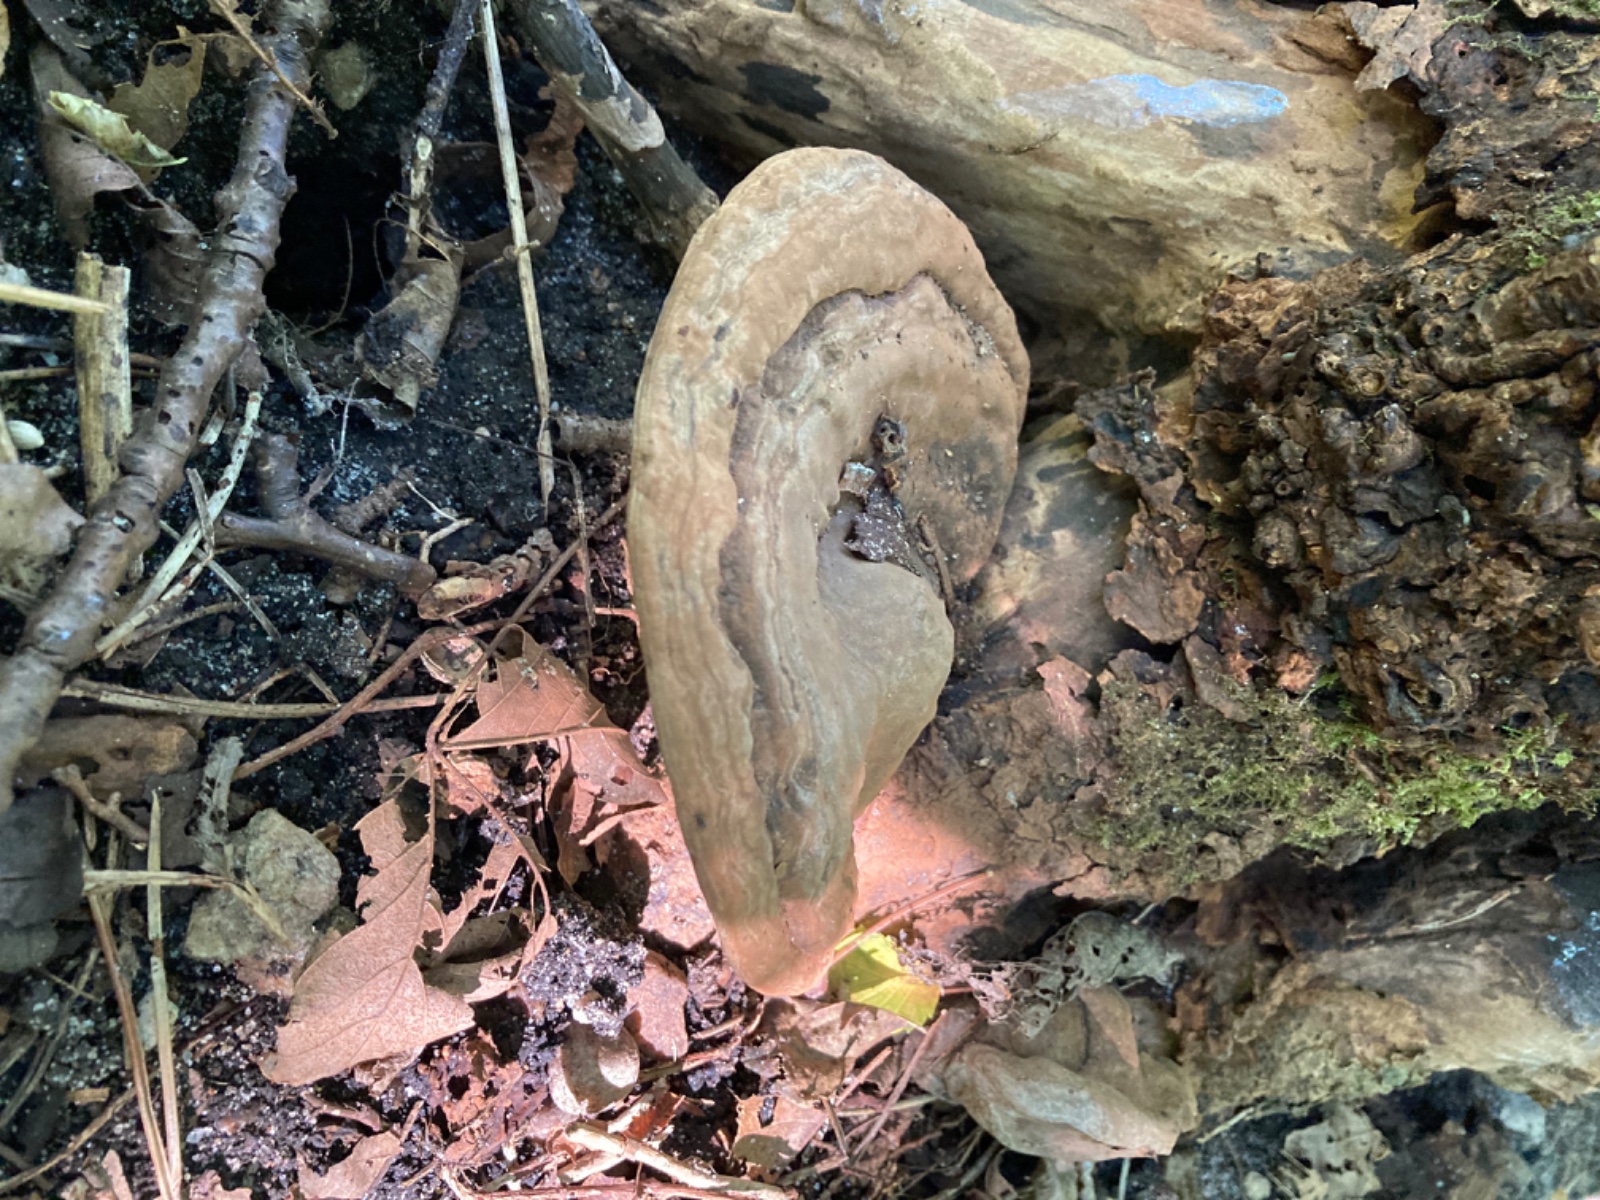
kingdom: Fungi
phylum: Basidiomycota
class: Agaricomycetes
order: Polyporales
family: Polyporaceae
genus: Ganoderma
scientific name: Ganoderma applanatum
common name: flad lakporesvamp
